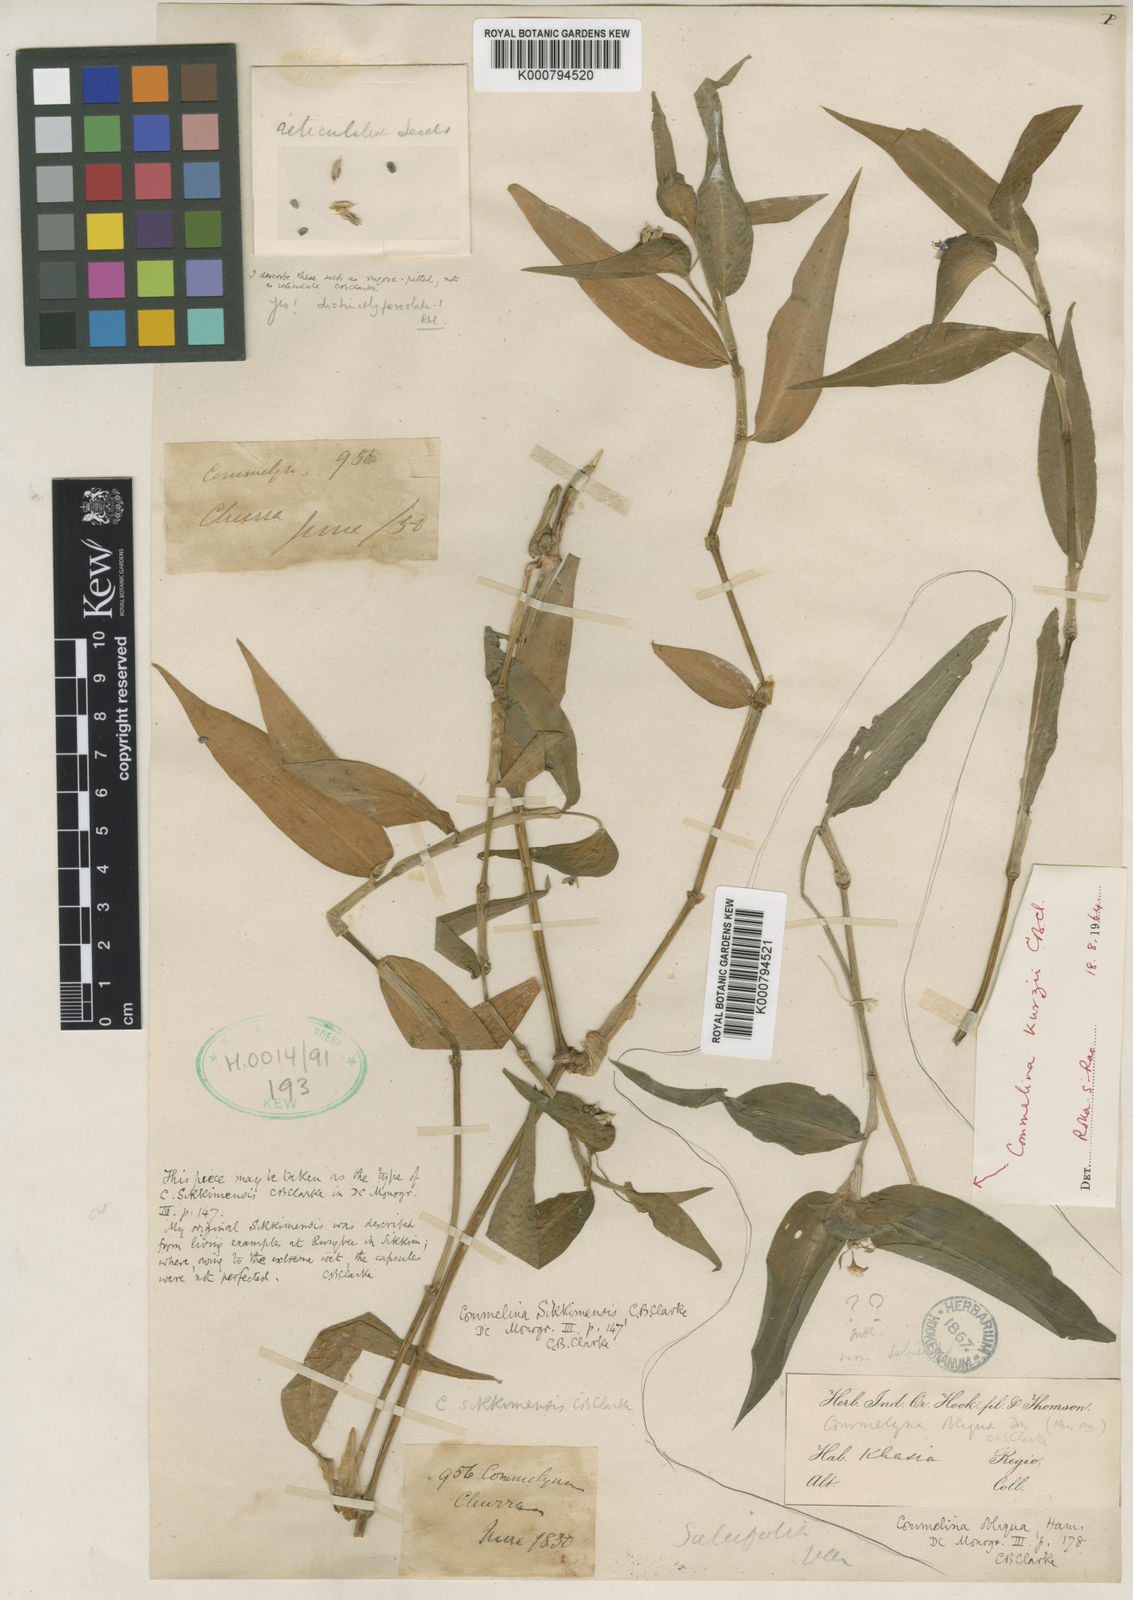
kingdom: Plantae
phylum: Tracheophyta
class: Liliopsida
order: Commelinales
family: Commelinaceae
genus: Commelina
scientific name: Commelina sikkimensis
